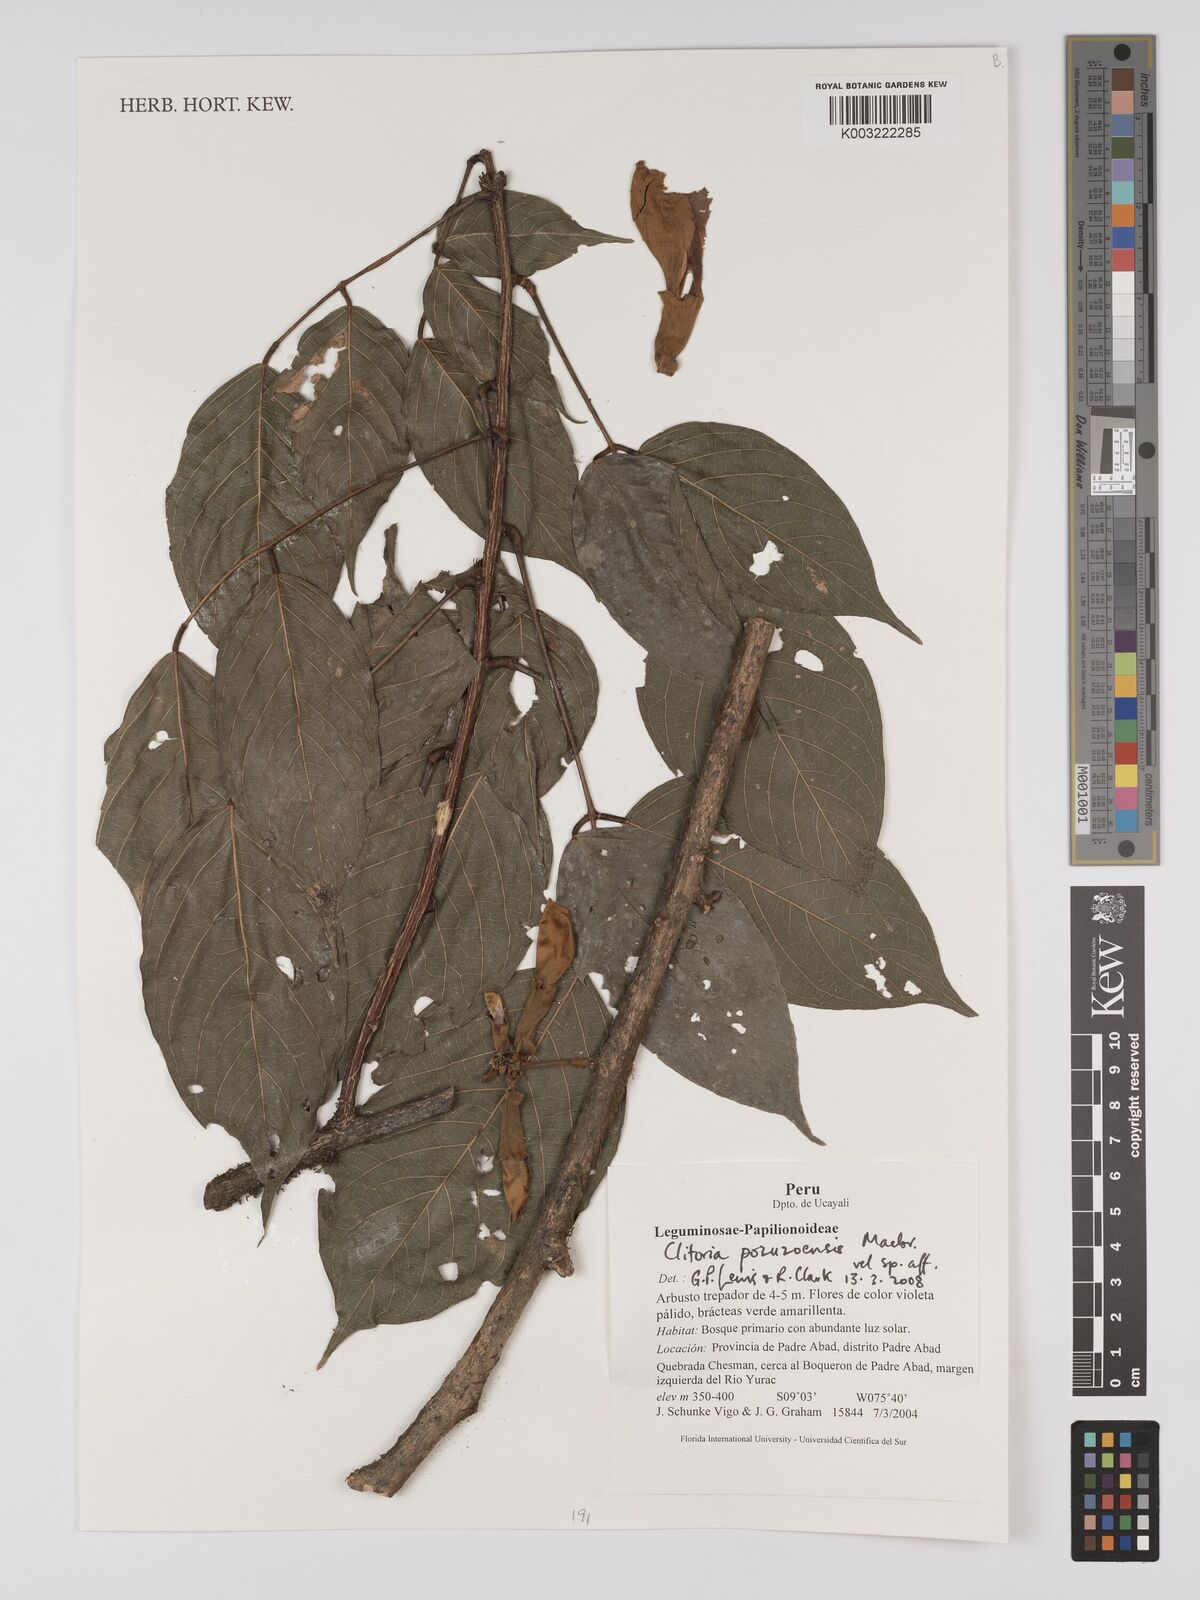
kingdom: Plantae
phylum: Tracheophyta
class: Magnoliopsida
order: Fabales
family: Fabaceae
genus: Clitoria
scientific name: Clitoria pozuzoensis
